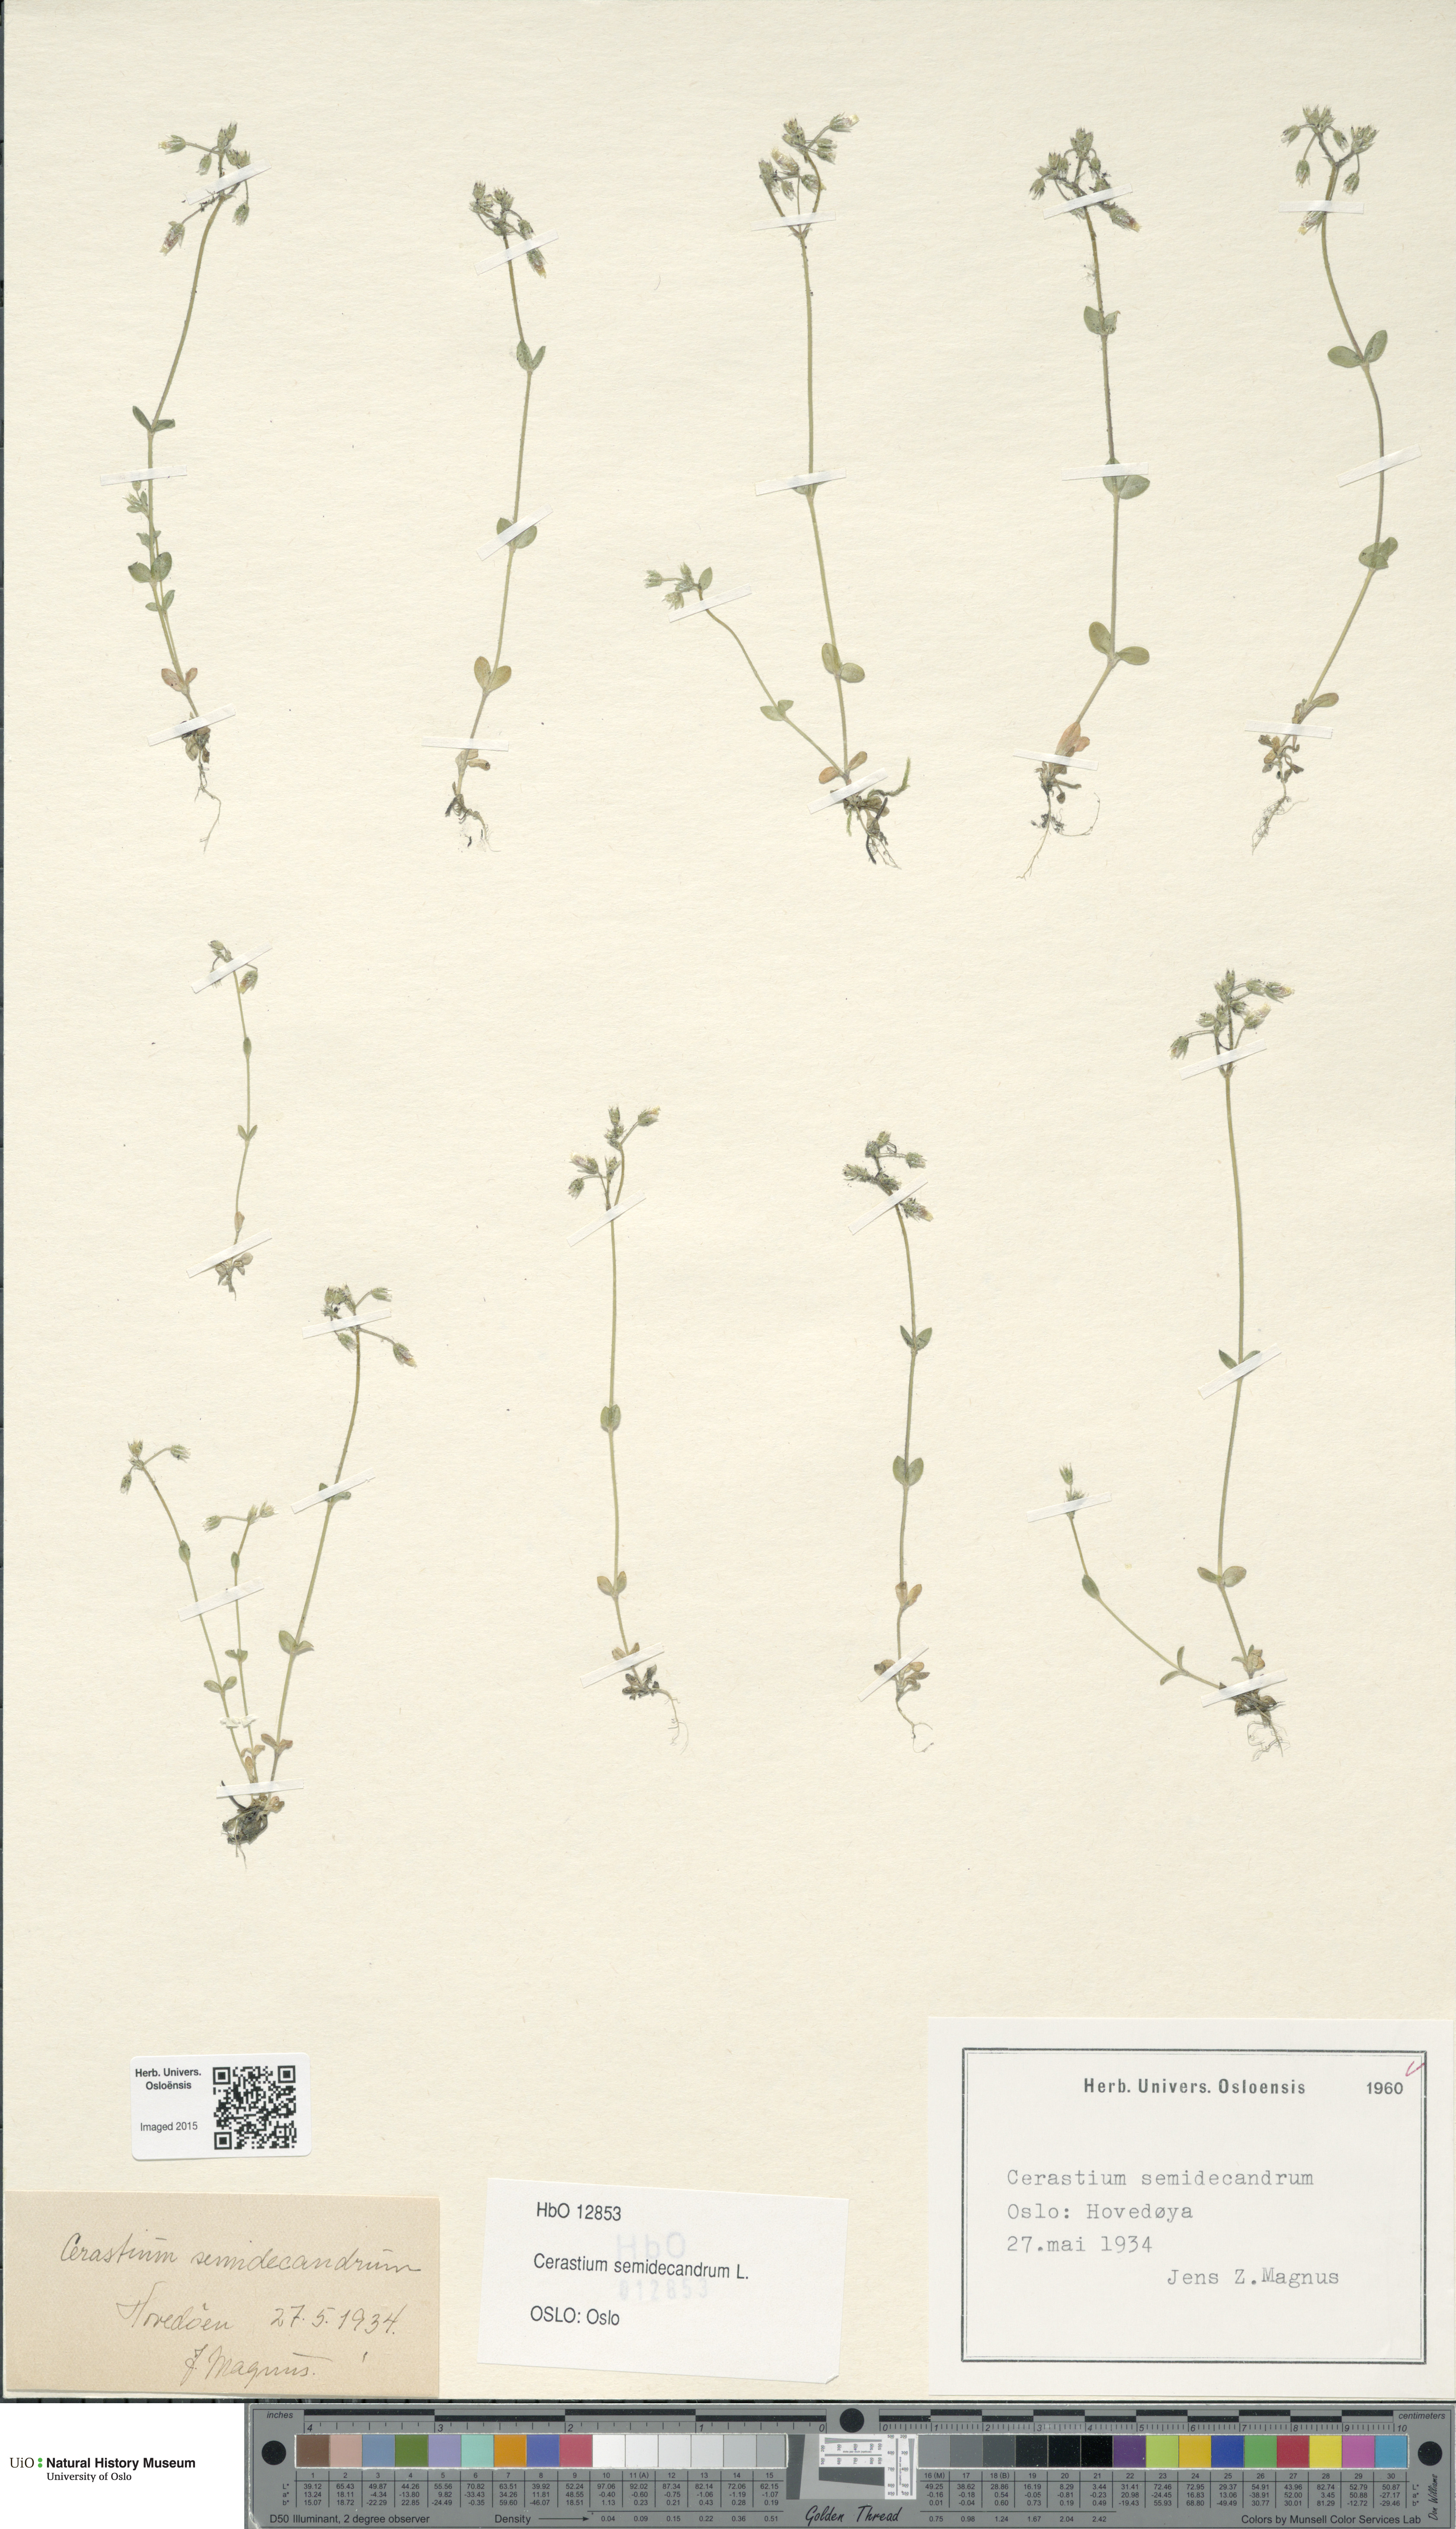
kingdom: Plantae
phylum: Tracheophyta
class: Magnoliopsida
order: Caryophyllales
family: Caryophyllaceae
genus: Cerastium
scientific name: Cerastium semidecandrum
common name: Little mouse-ear
